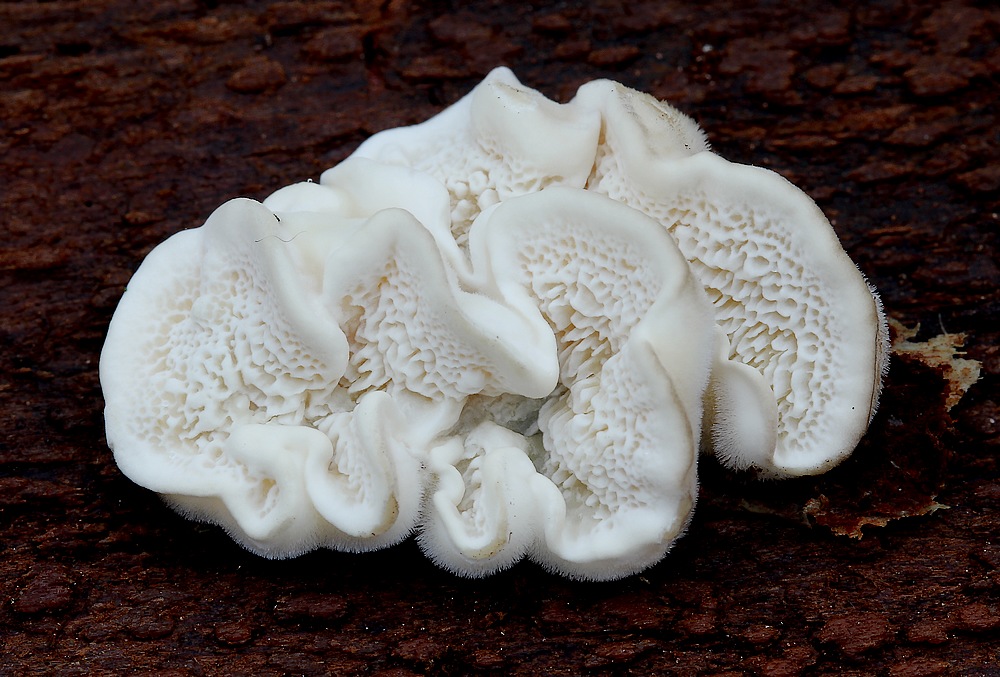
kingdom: Fungi
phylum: Basidiomycota
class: Agaricomycetes
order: Polyporales
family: Polyporaceae
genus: Trametes
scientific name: Trametes
